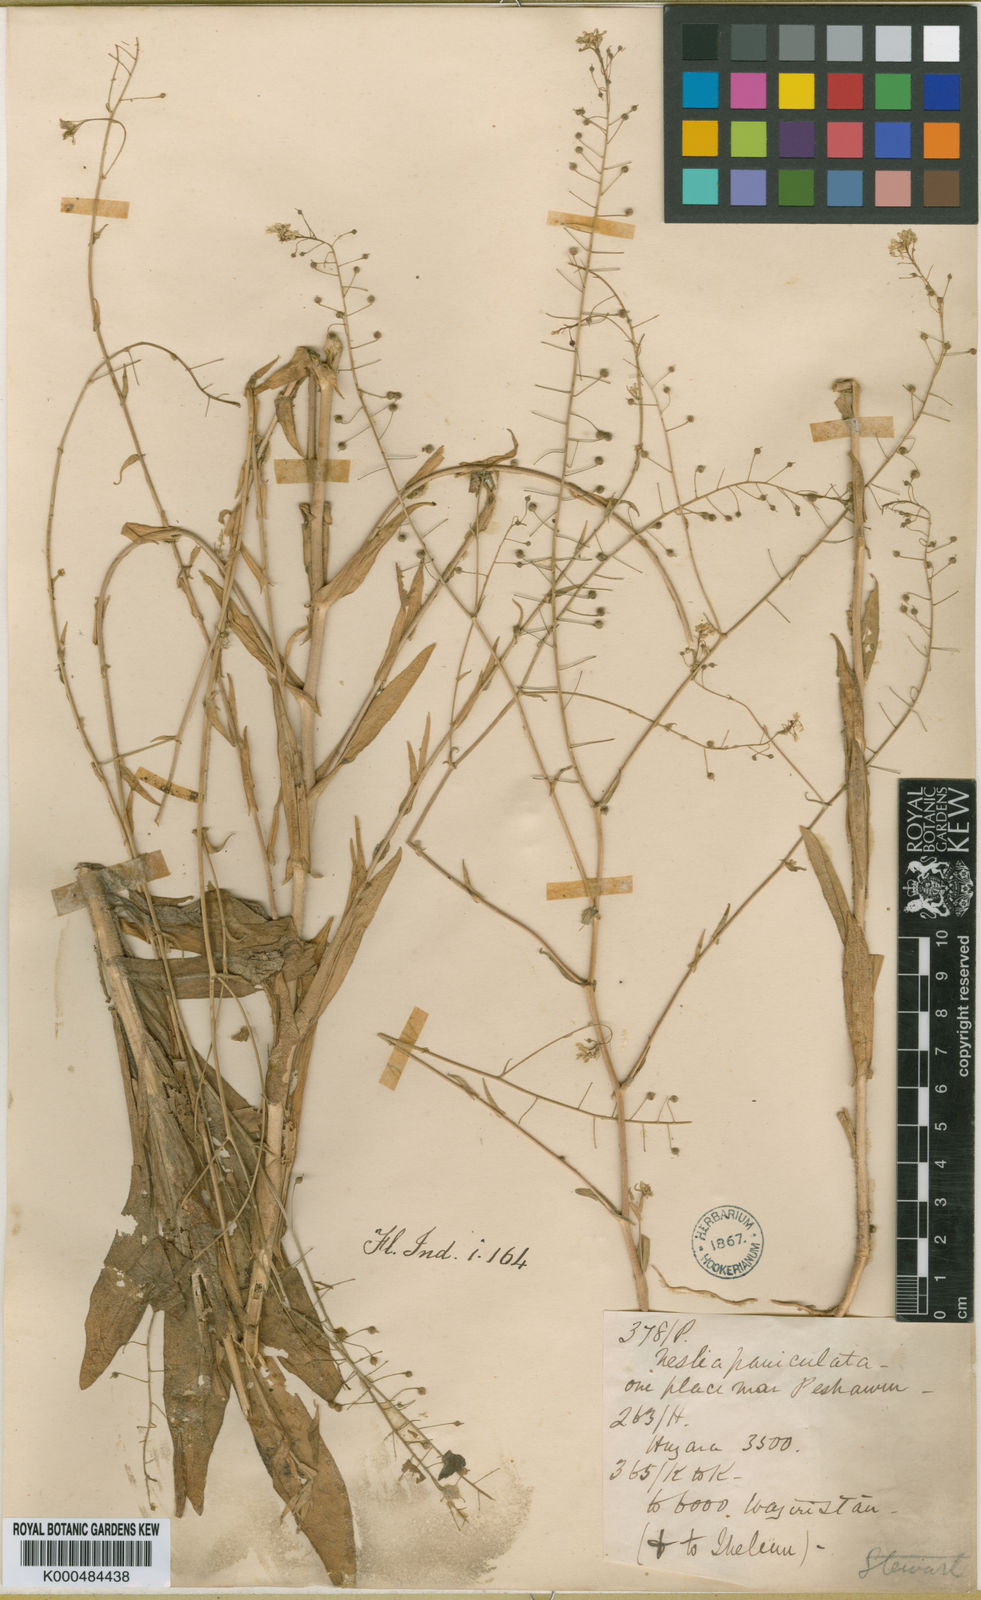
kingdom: Plantae
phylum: Tracheophyta
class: Magnoliopsida
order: Brassicales
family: Brassicaceae
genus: Neslia
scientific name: Neslia
